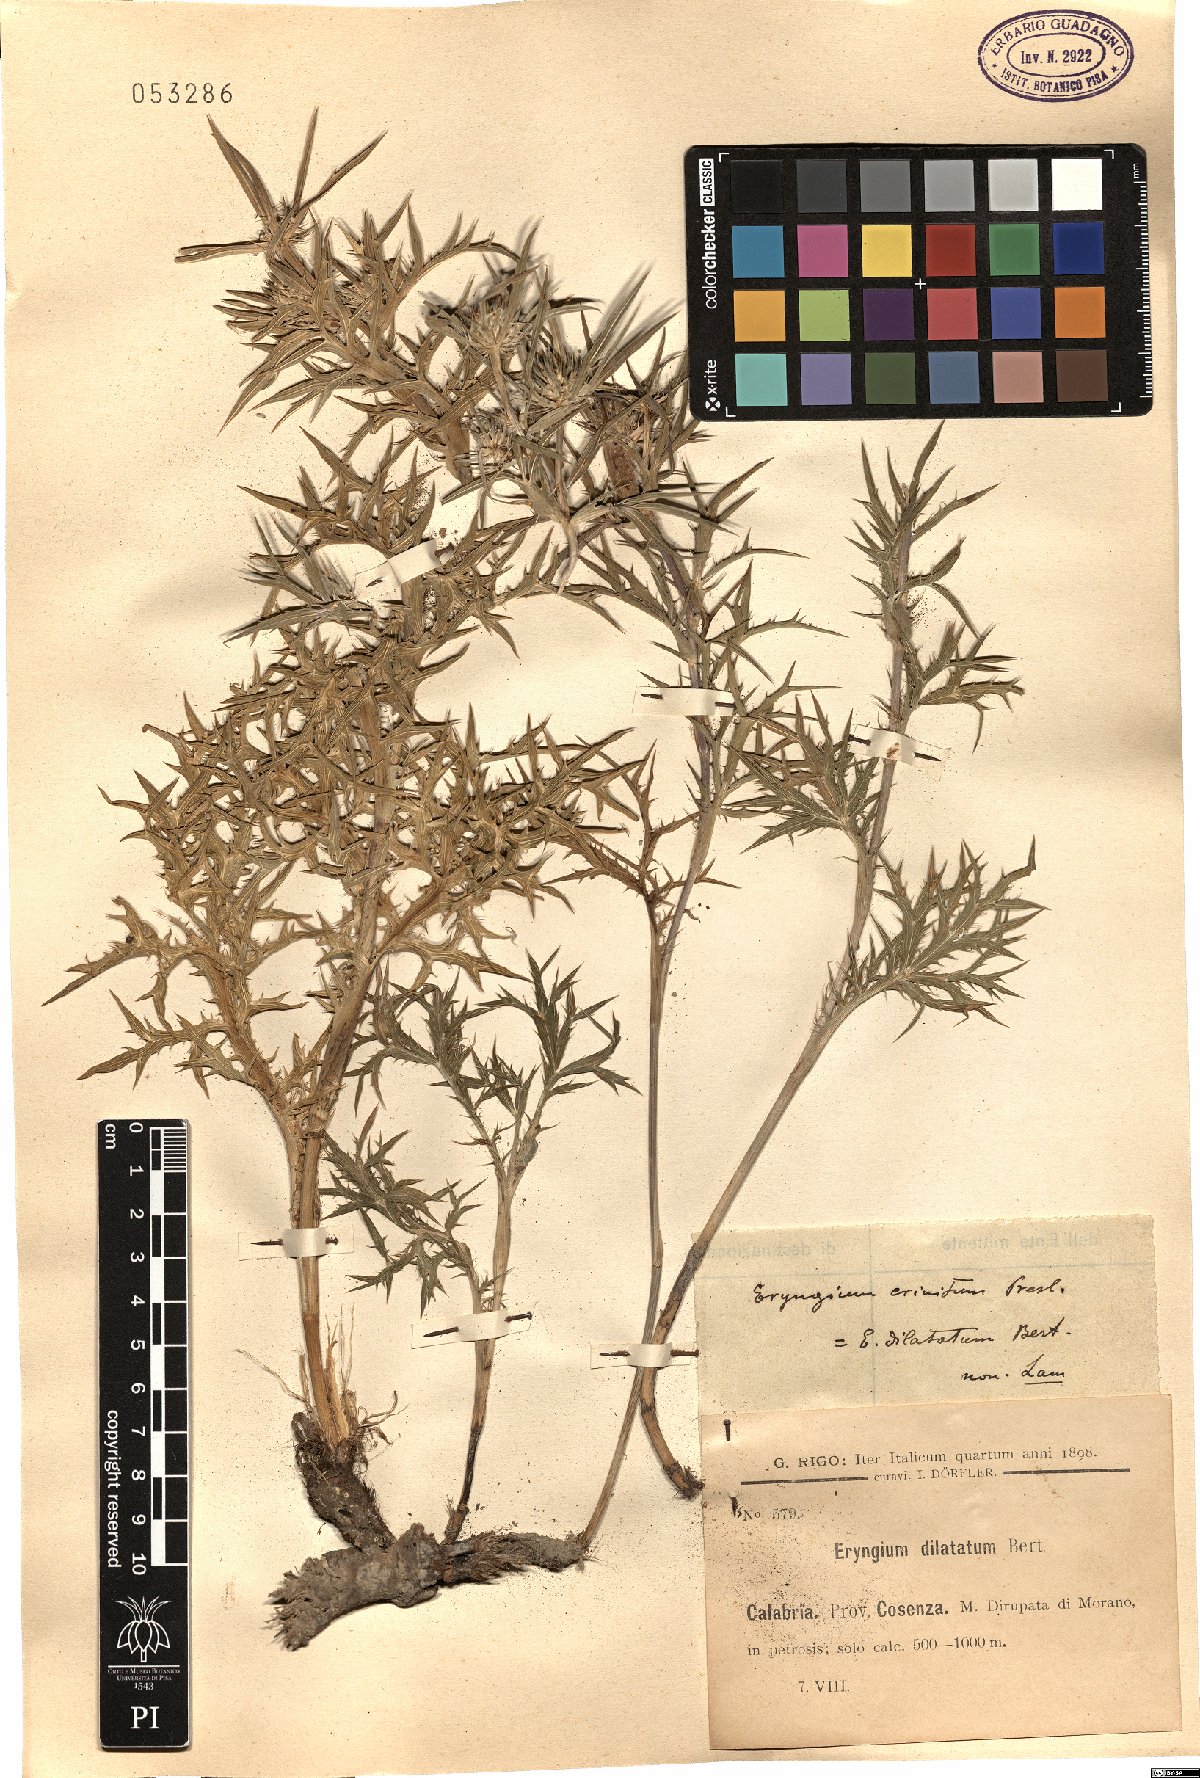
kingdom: Plantae
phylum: Tracheophyta
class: Magnoliopsida
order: Apiales
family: Apiaceae
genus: Eryngium
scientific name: Eryngium crinitum
